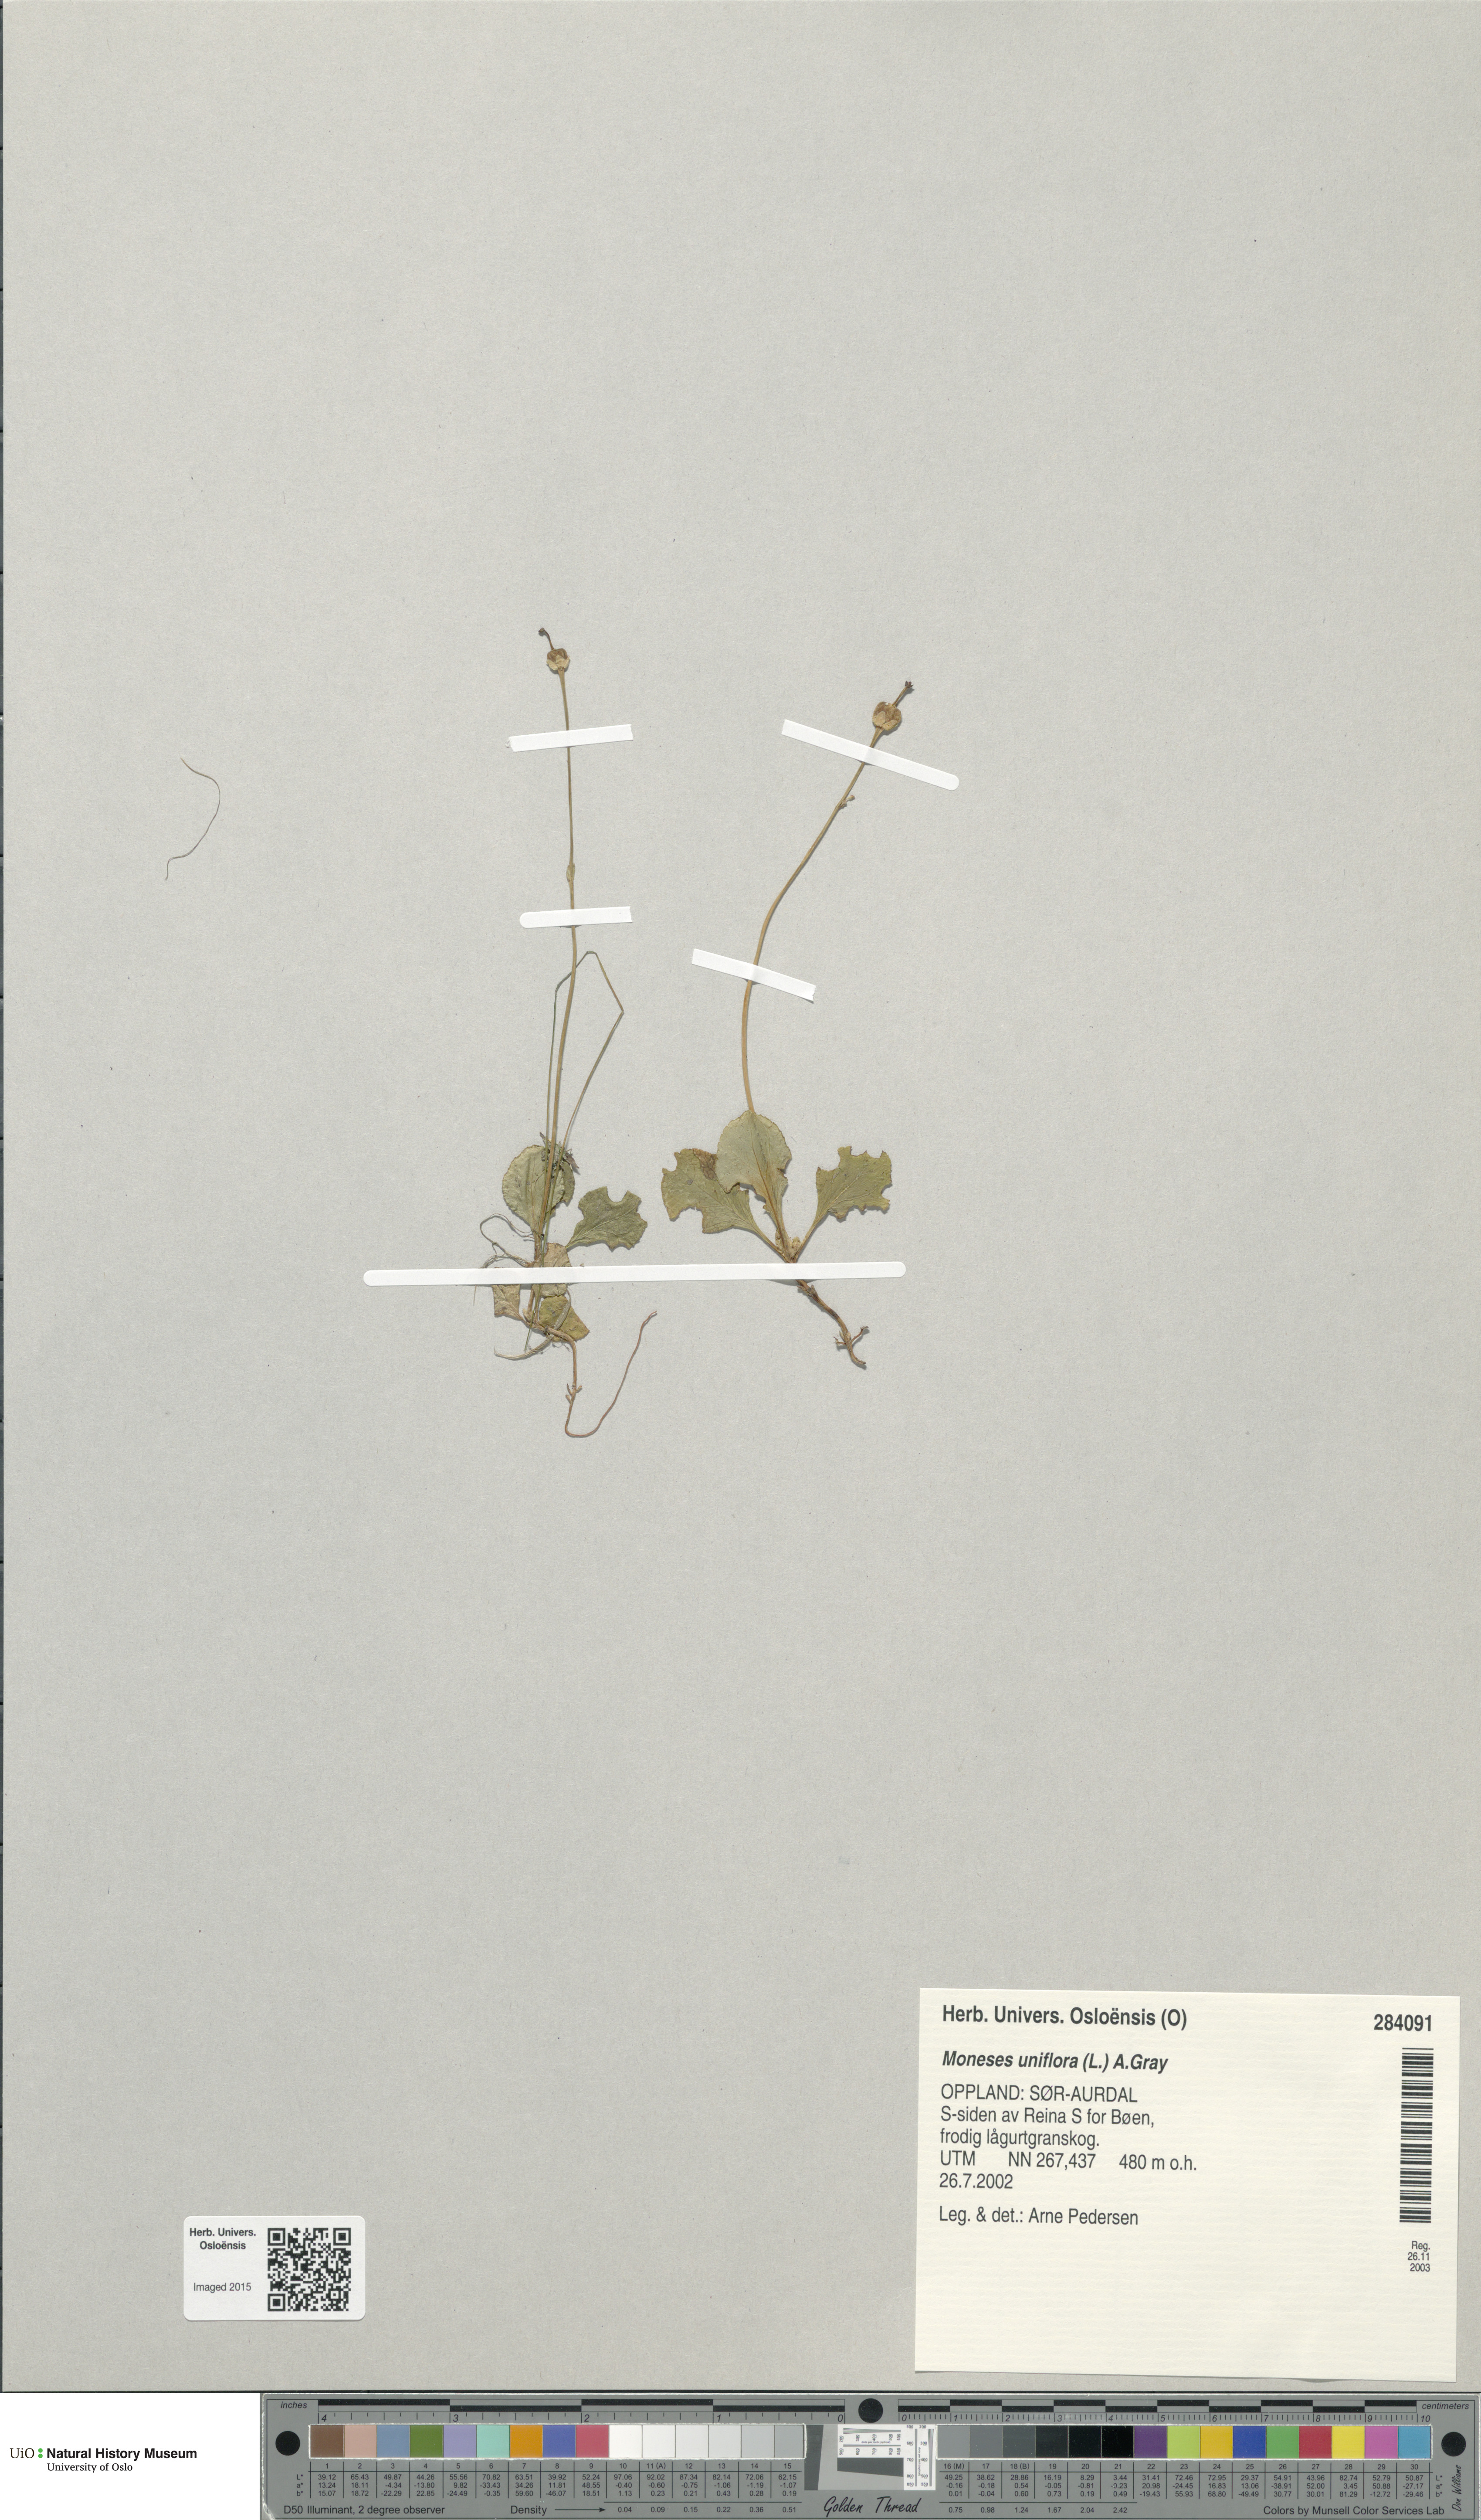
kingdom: Plantae
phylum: Tracheophyta
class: Magnoliopsida
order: Ericales
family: Ericaceae
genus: Moneses
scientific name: Moneses uniflora
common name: One-flowered wintergreen
